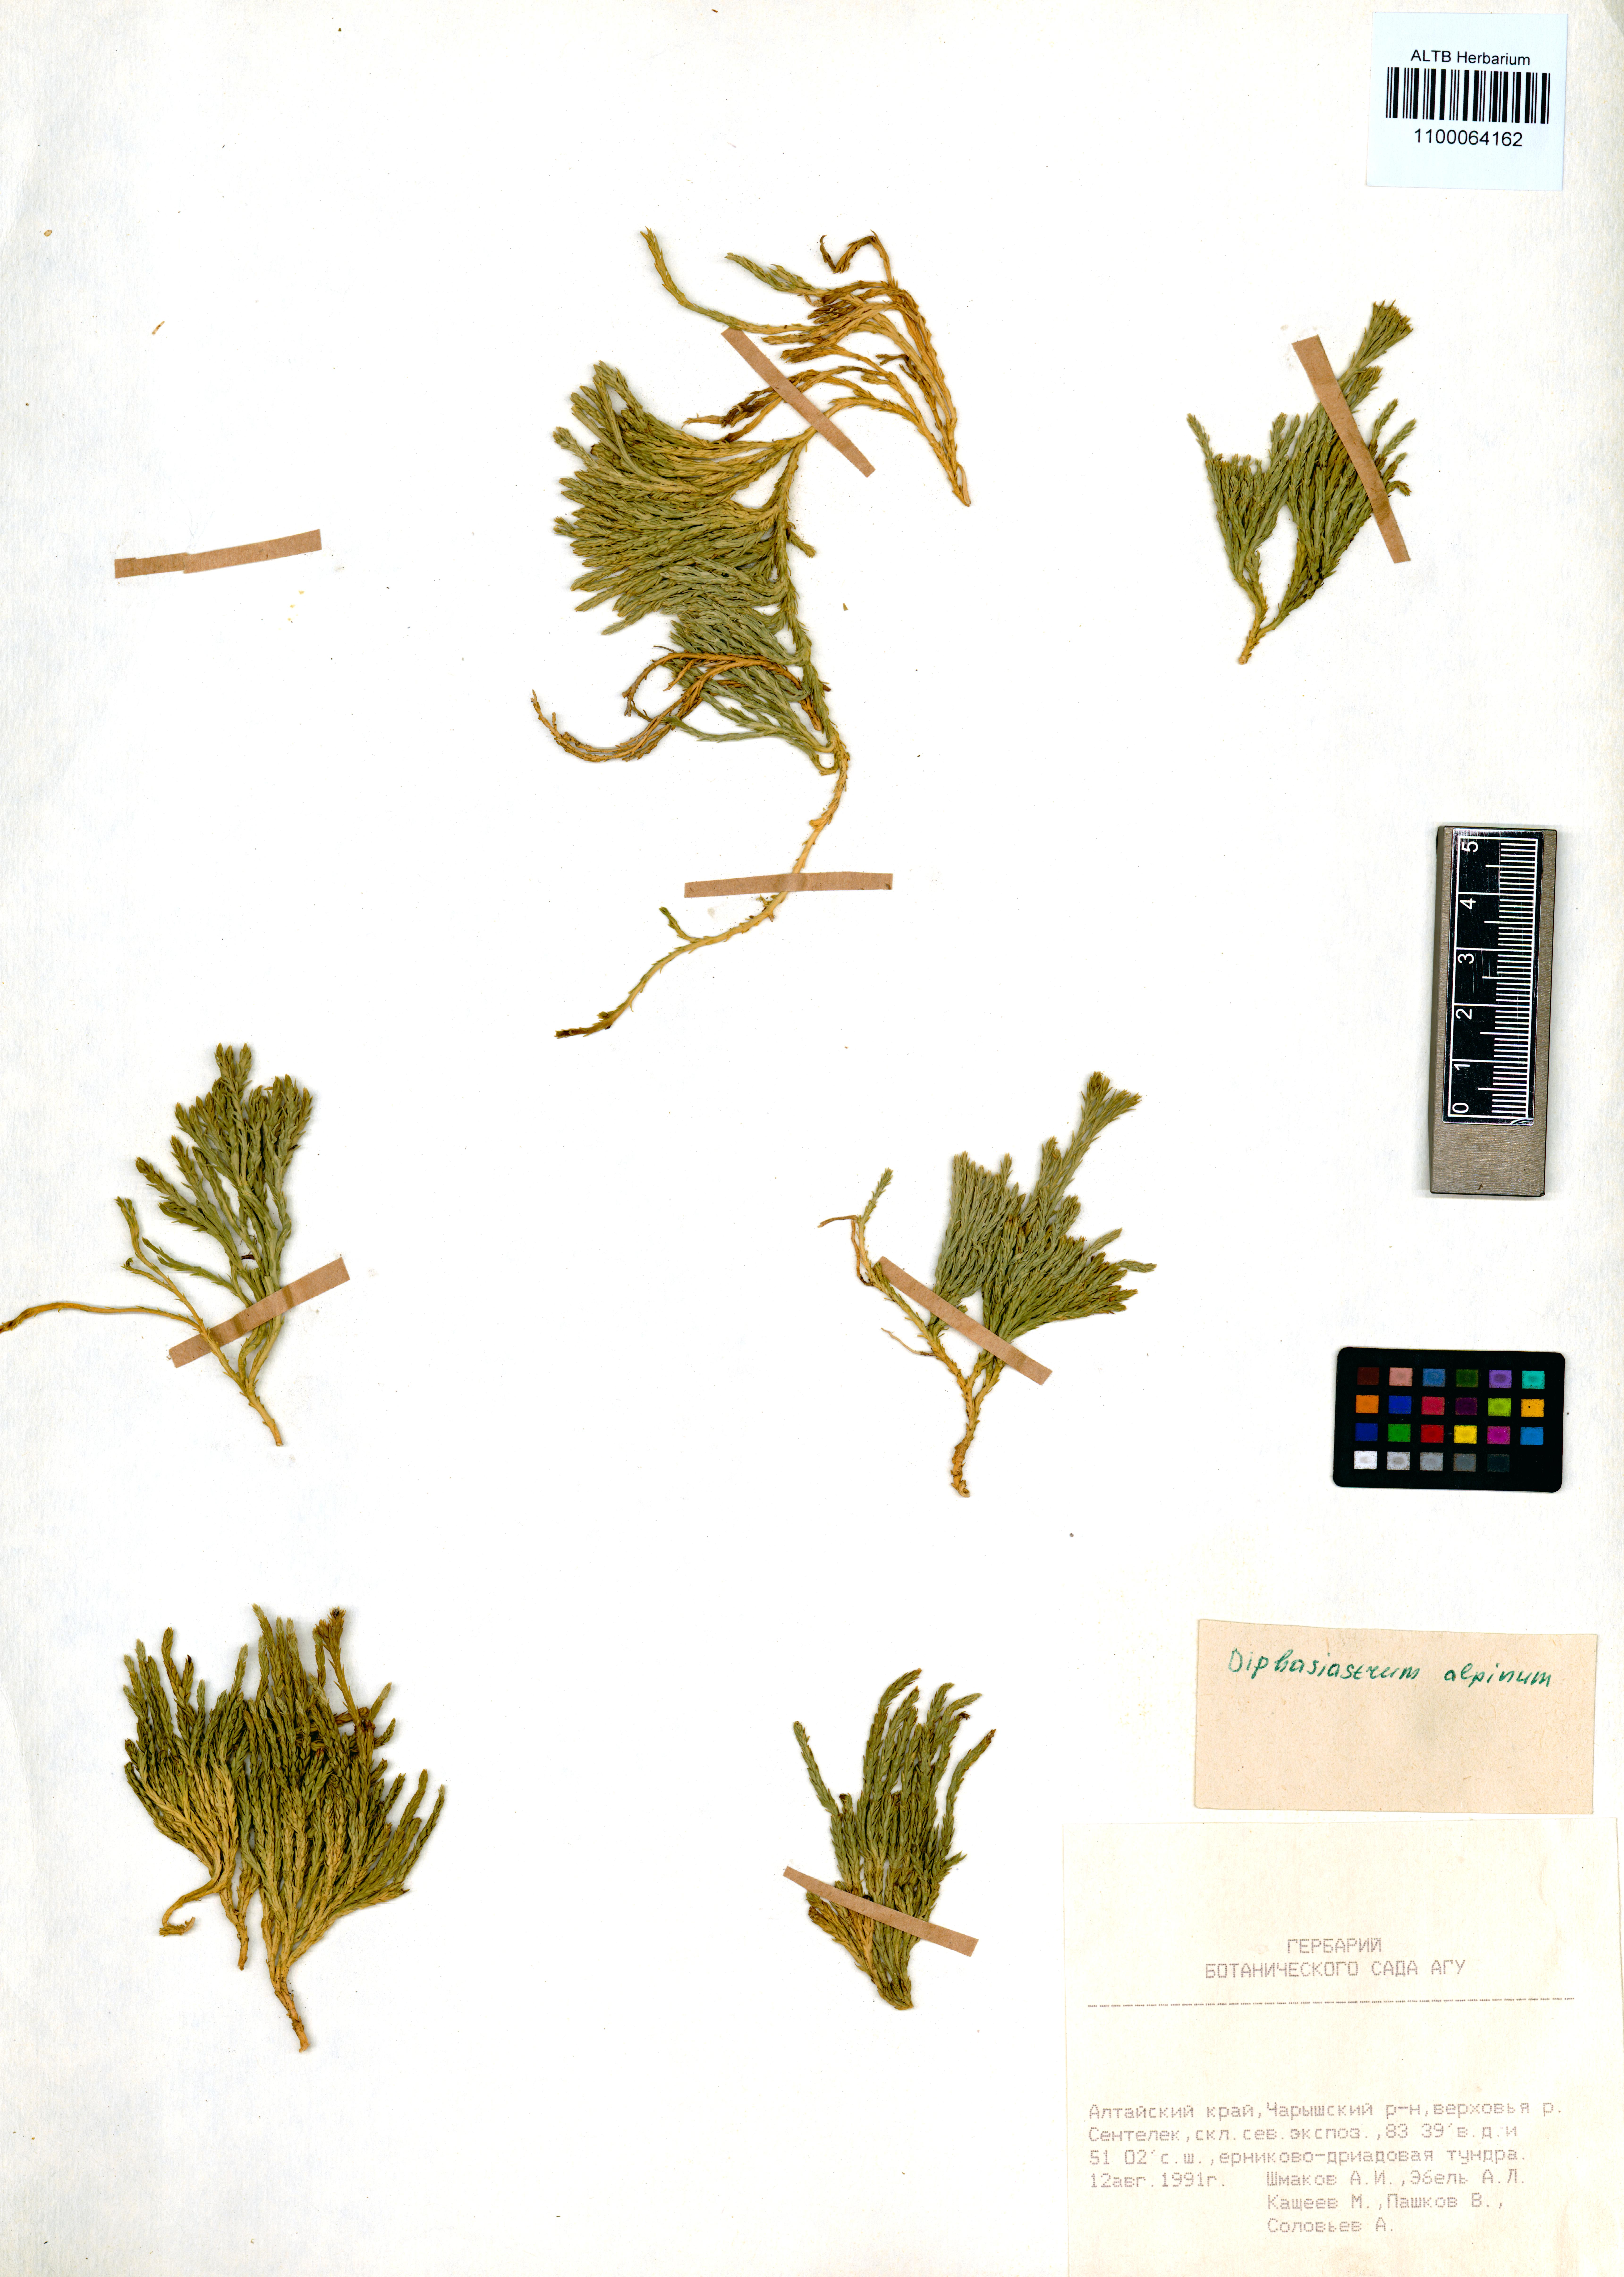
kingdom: Plantae
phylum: Tracheophyta
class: Lycopodiopsida
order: Lycopodiales
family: Lycopodiaceae
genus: Diphasiastrum
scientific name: Diphasiastrum alpinum
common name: Alpine clubmoss
